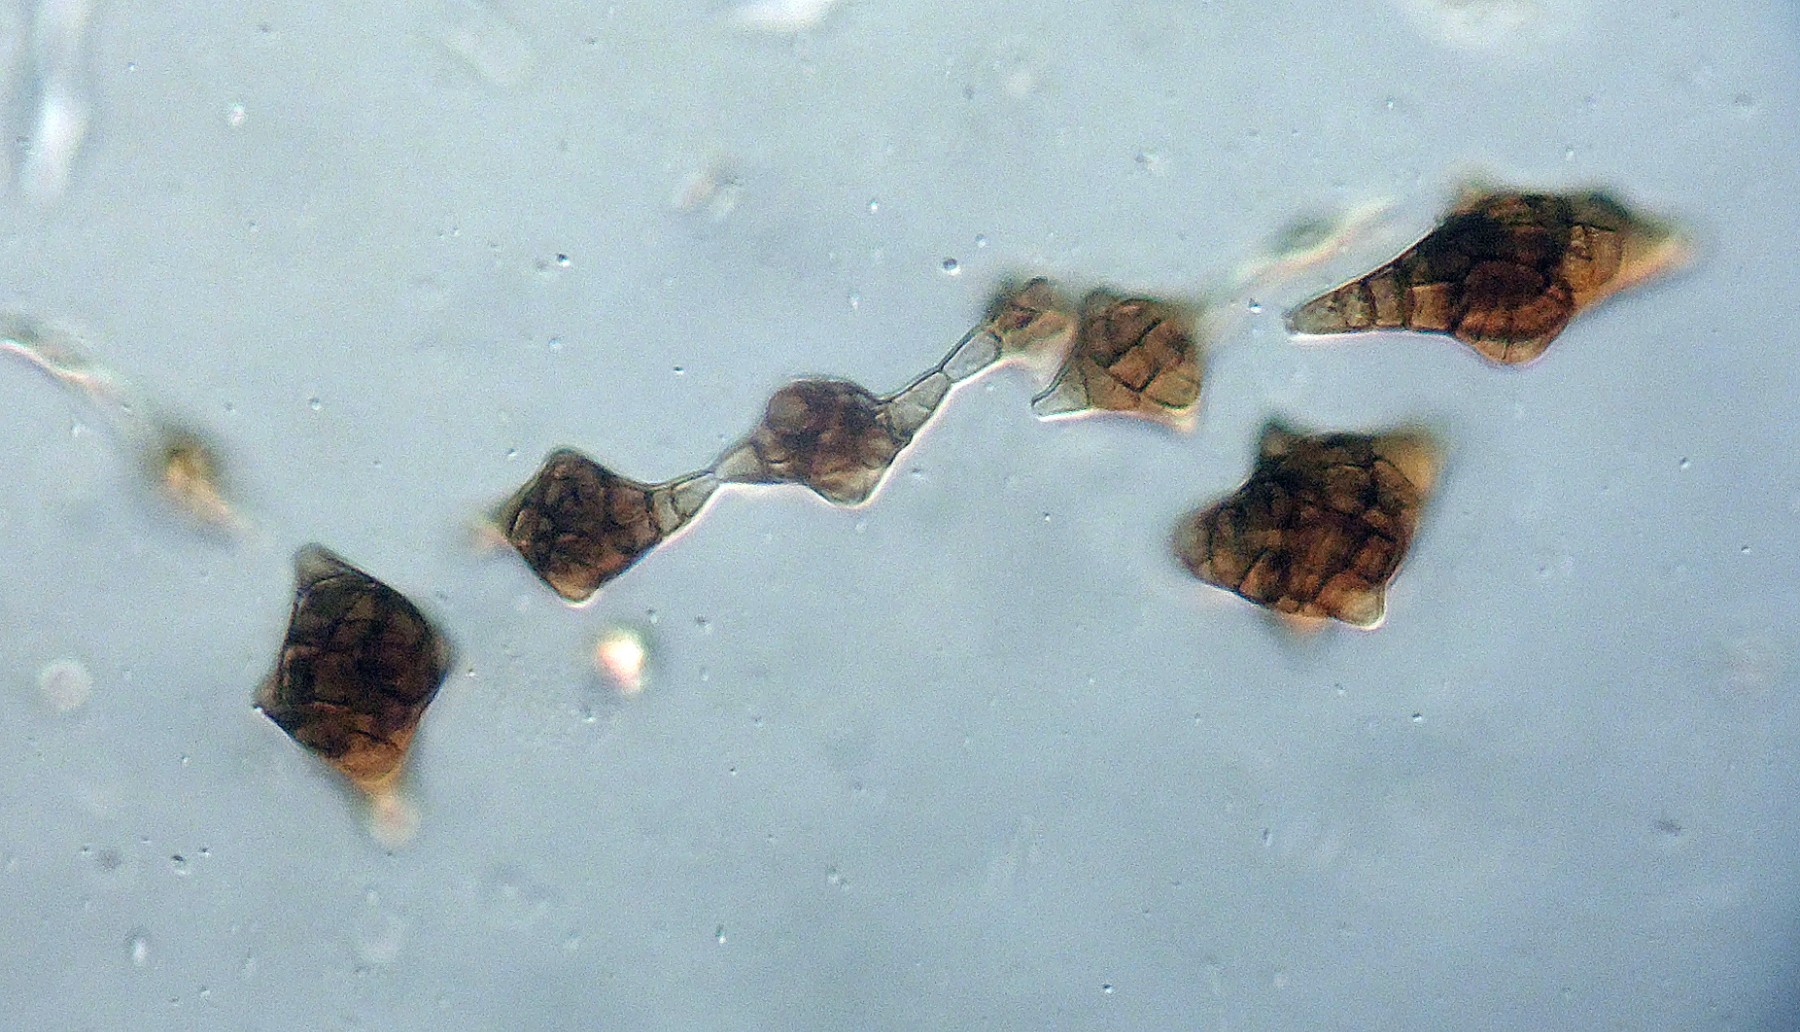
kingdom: Fungi
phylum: Ascomycota
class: Dothideomycetes
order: Pleosporales
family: Melanommataceae
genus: Phragmotrichum
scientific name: Phragmotrichum chailletii
